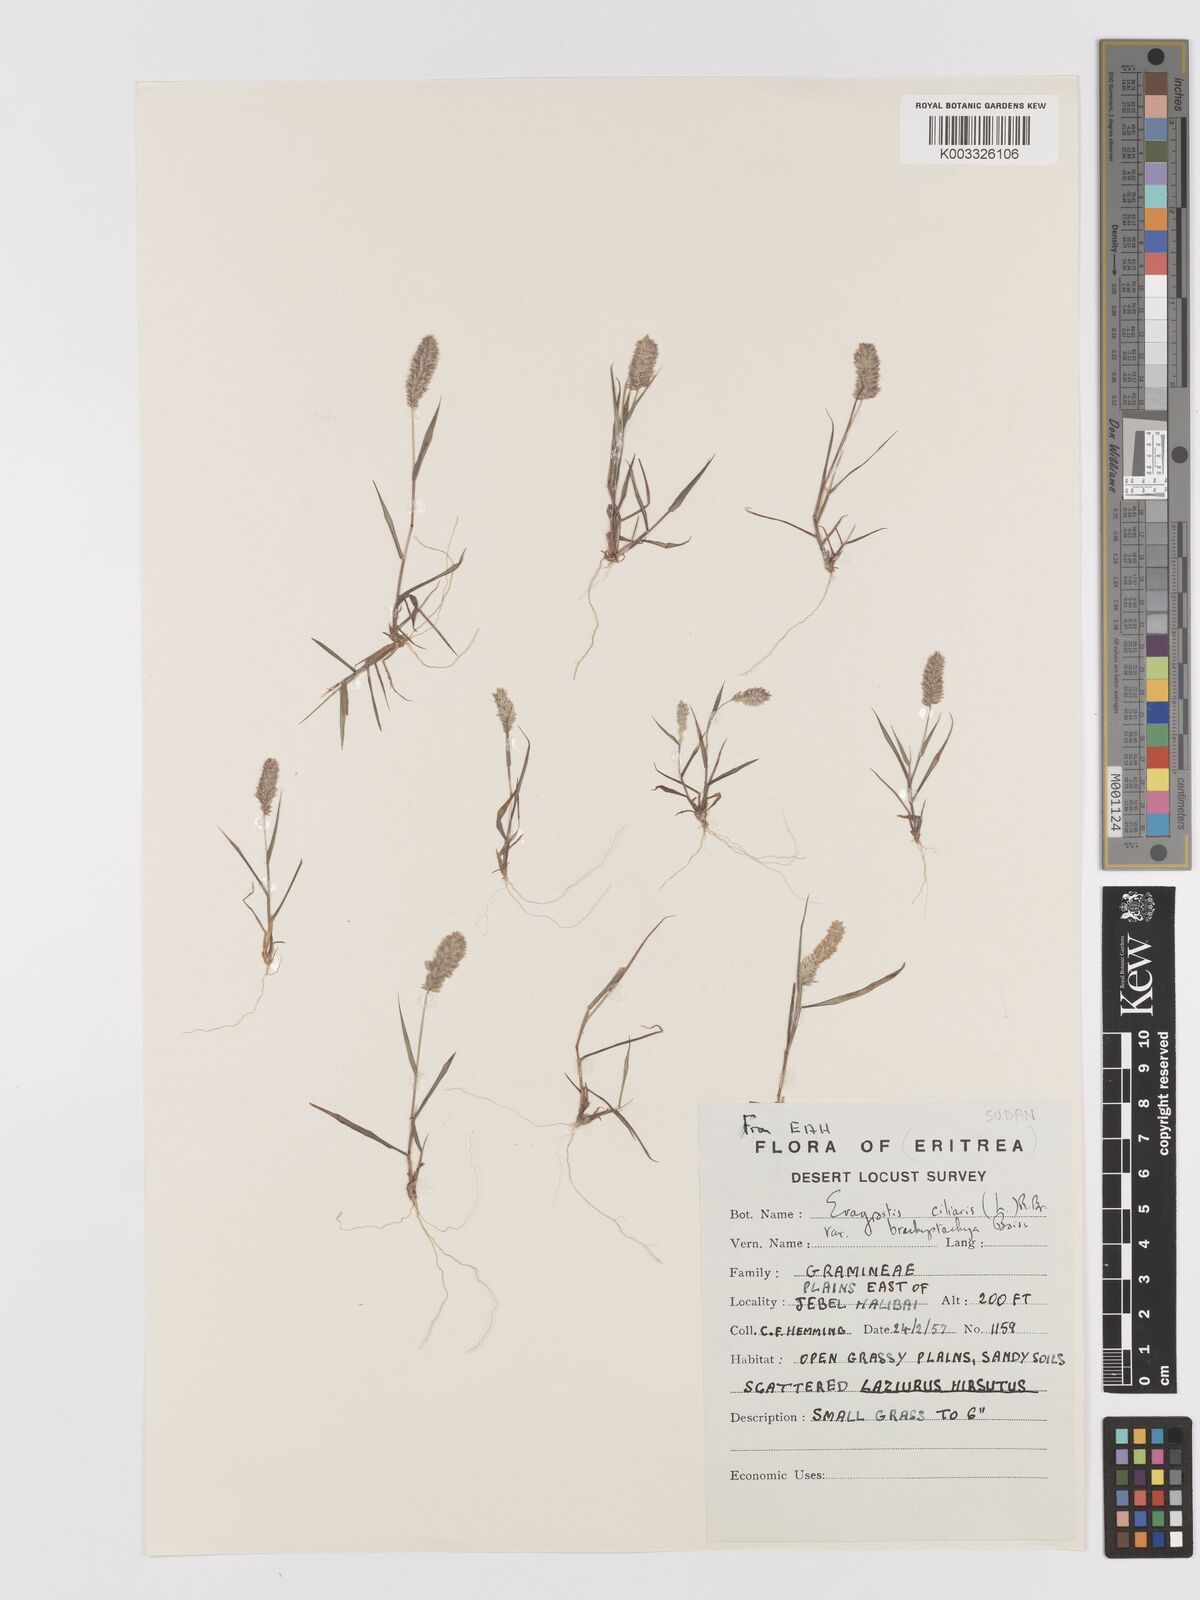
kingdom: Plantae
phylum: Tracheophyta
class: Liliopsida
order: Poales
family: Poaceae
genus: Eragrostis
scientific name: Eragrostis ciliaris
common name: Gophertail lovegrass
